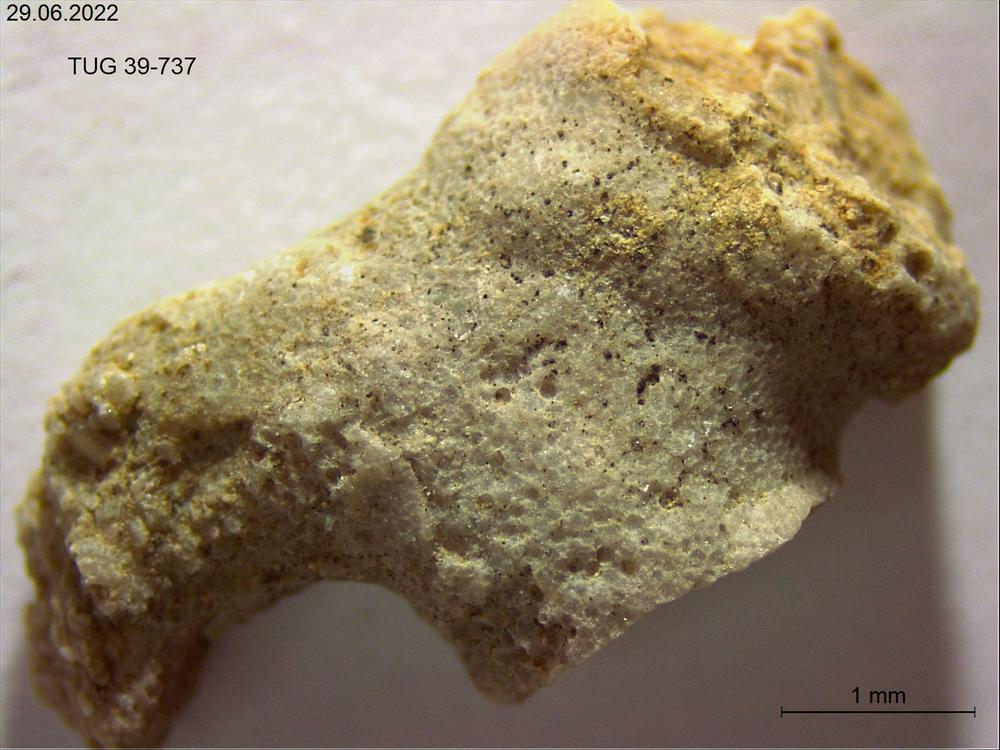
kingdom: Animalia
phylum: Bryozoa
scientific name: Bryozoa
